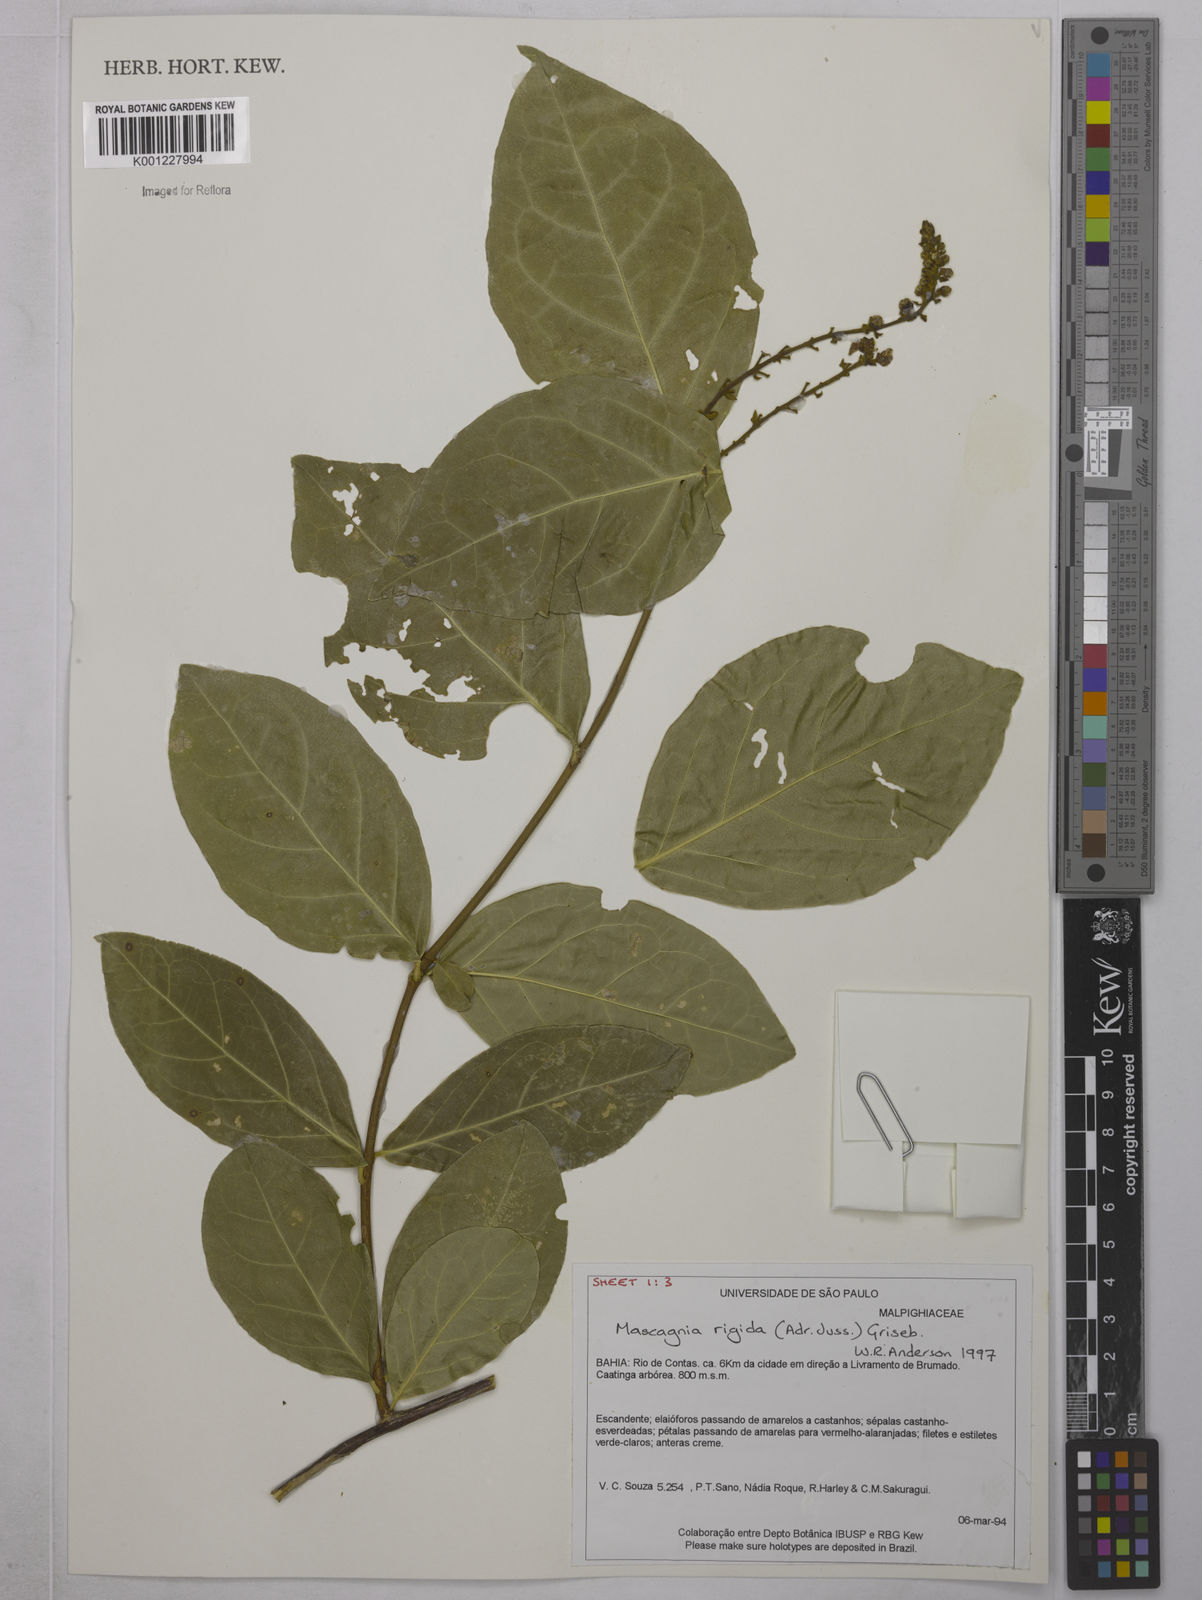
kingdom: Plantae
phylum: Tracheophyta
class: Magnoliopsida
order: Malpighiales
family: Malpighiaceae
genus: Amorimia
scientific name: Amorimia rigida
